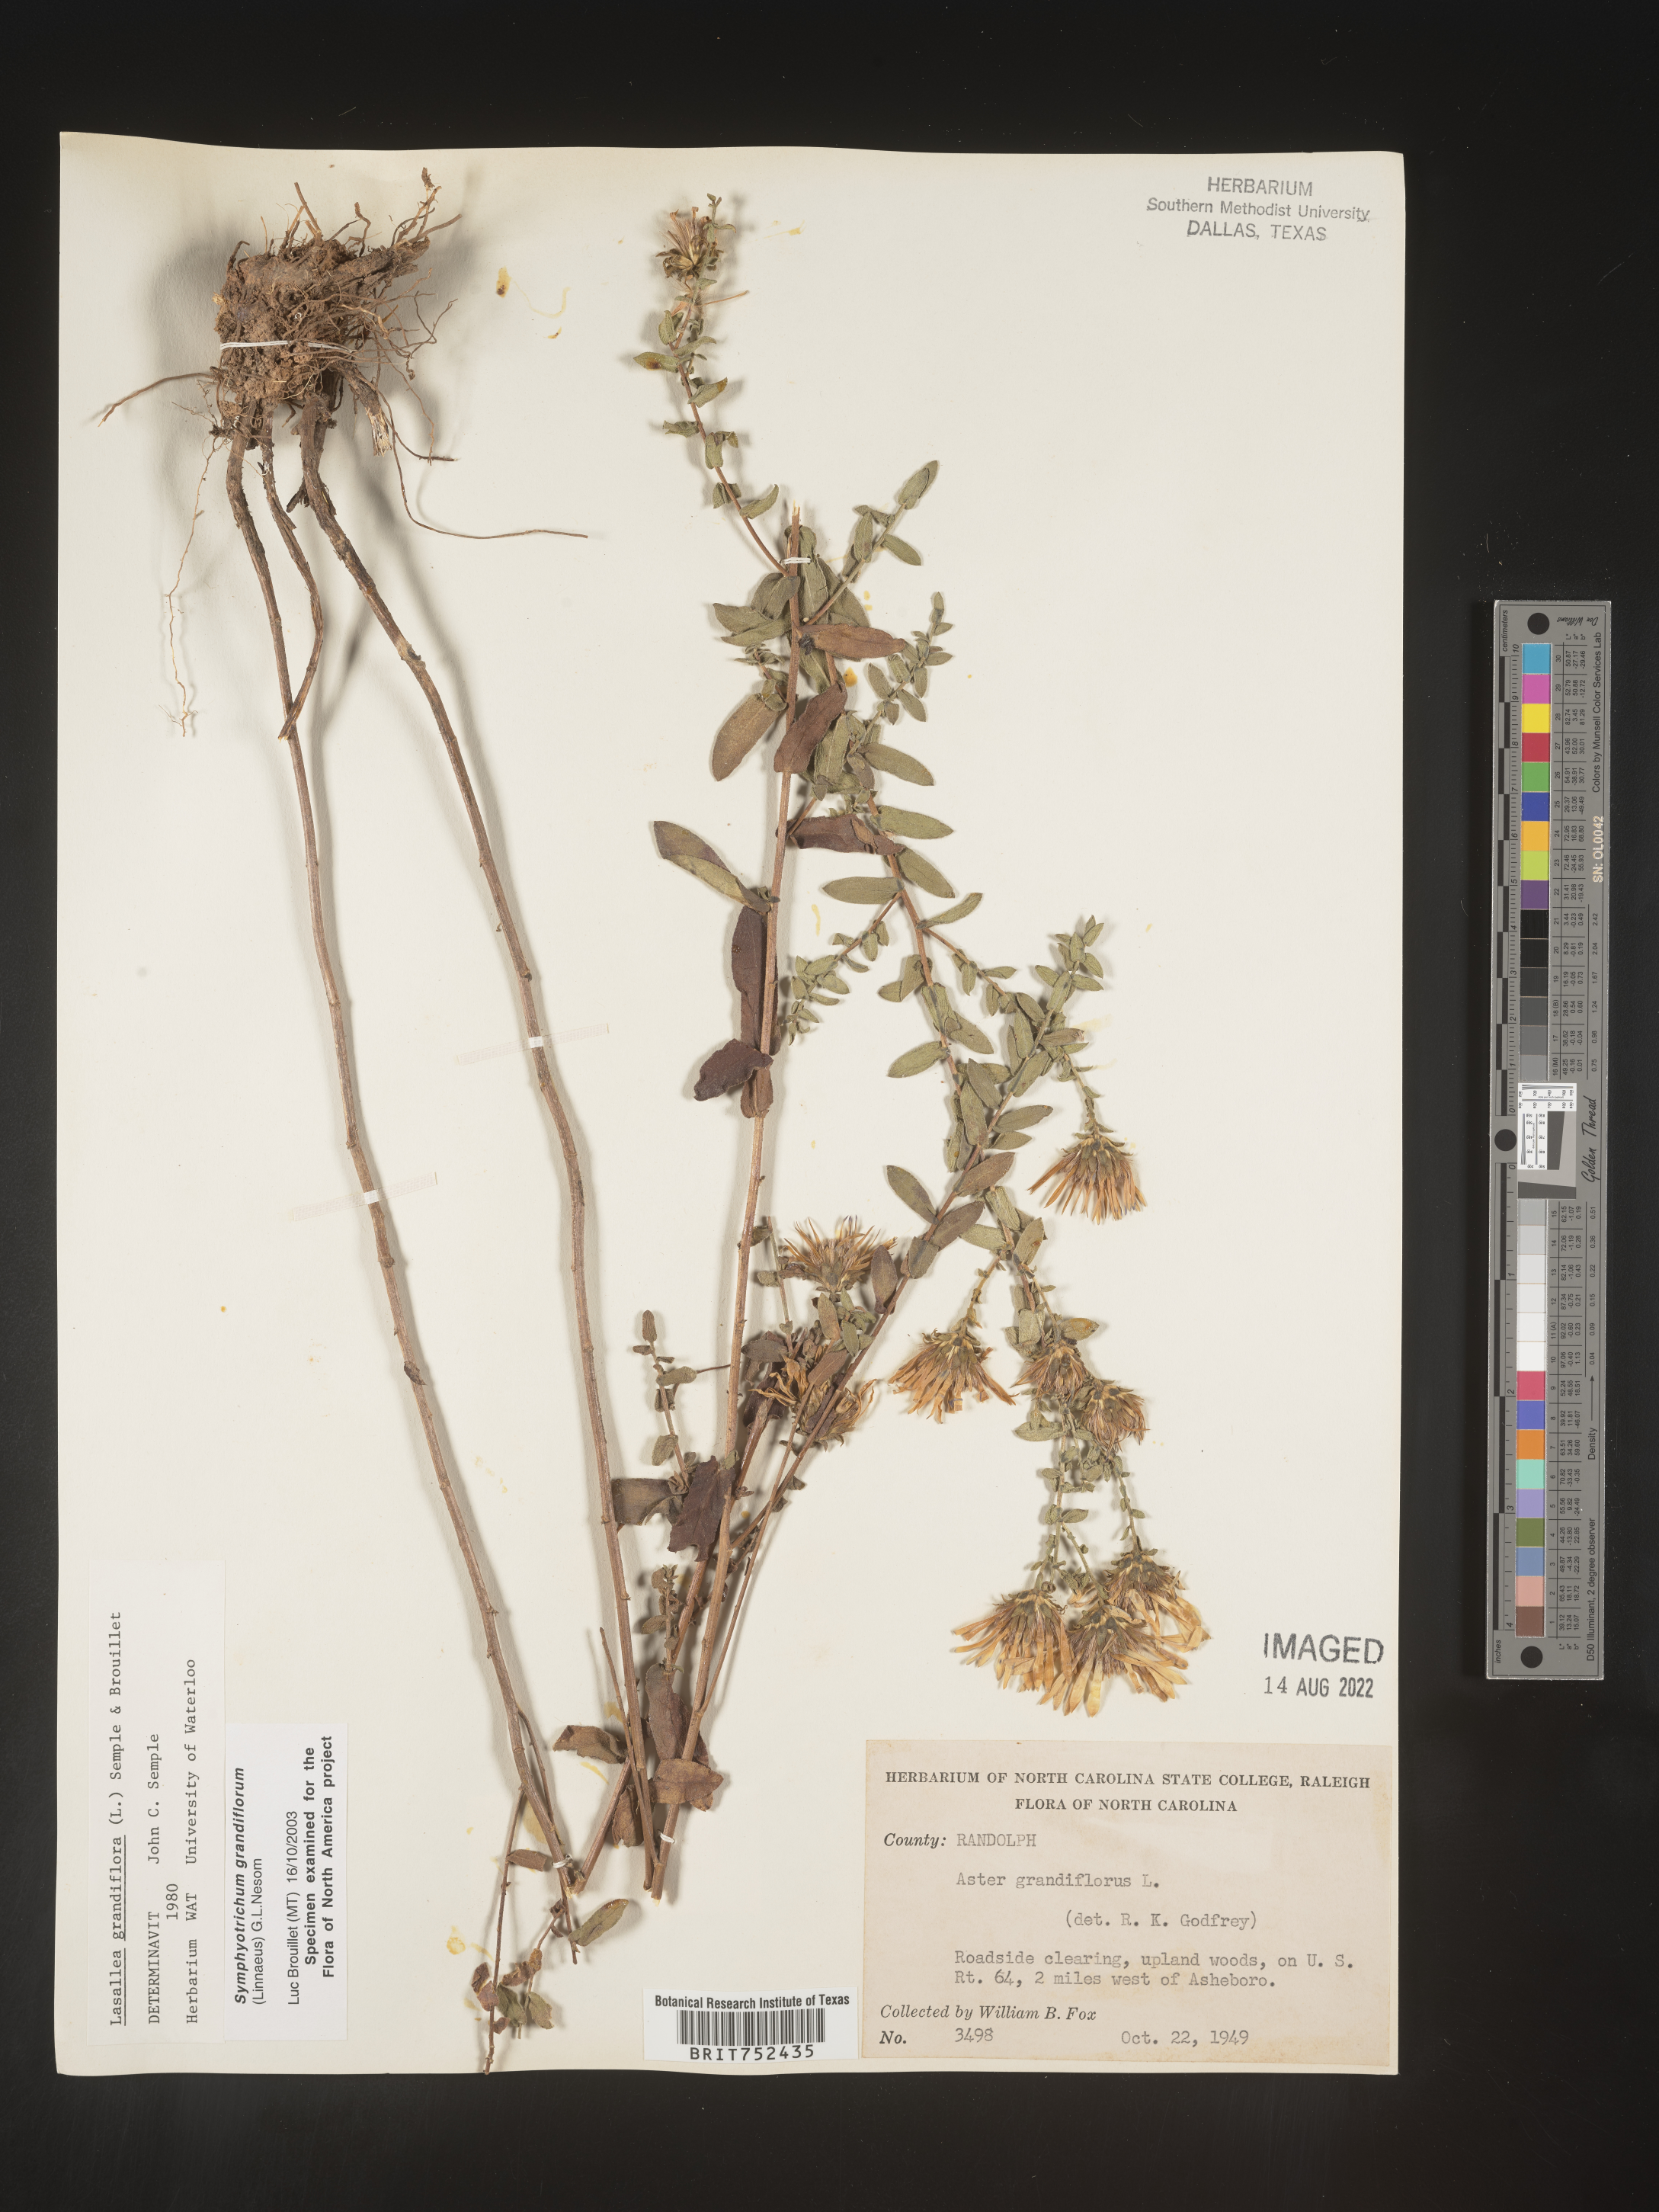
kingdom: Plantae
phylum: Tracheophyta
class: Magnoliopsida
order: Asterales
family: Asteraceae
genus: Symphyotrichum
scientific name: Symphyotrichum grandiflorum
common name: Big-head aster
